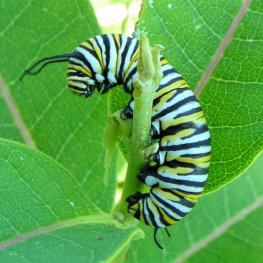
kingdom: Animalia
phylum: Arthropoda
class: Insecta
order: Lepidoptera
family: Nymphalidae
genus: Danaus
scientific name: Danaus plexippus
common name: Monarch
